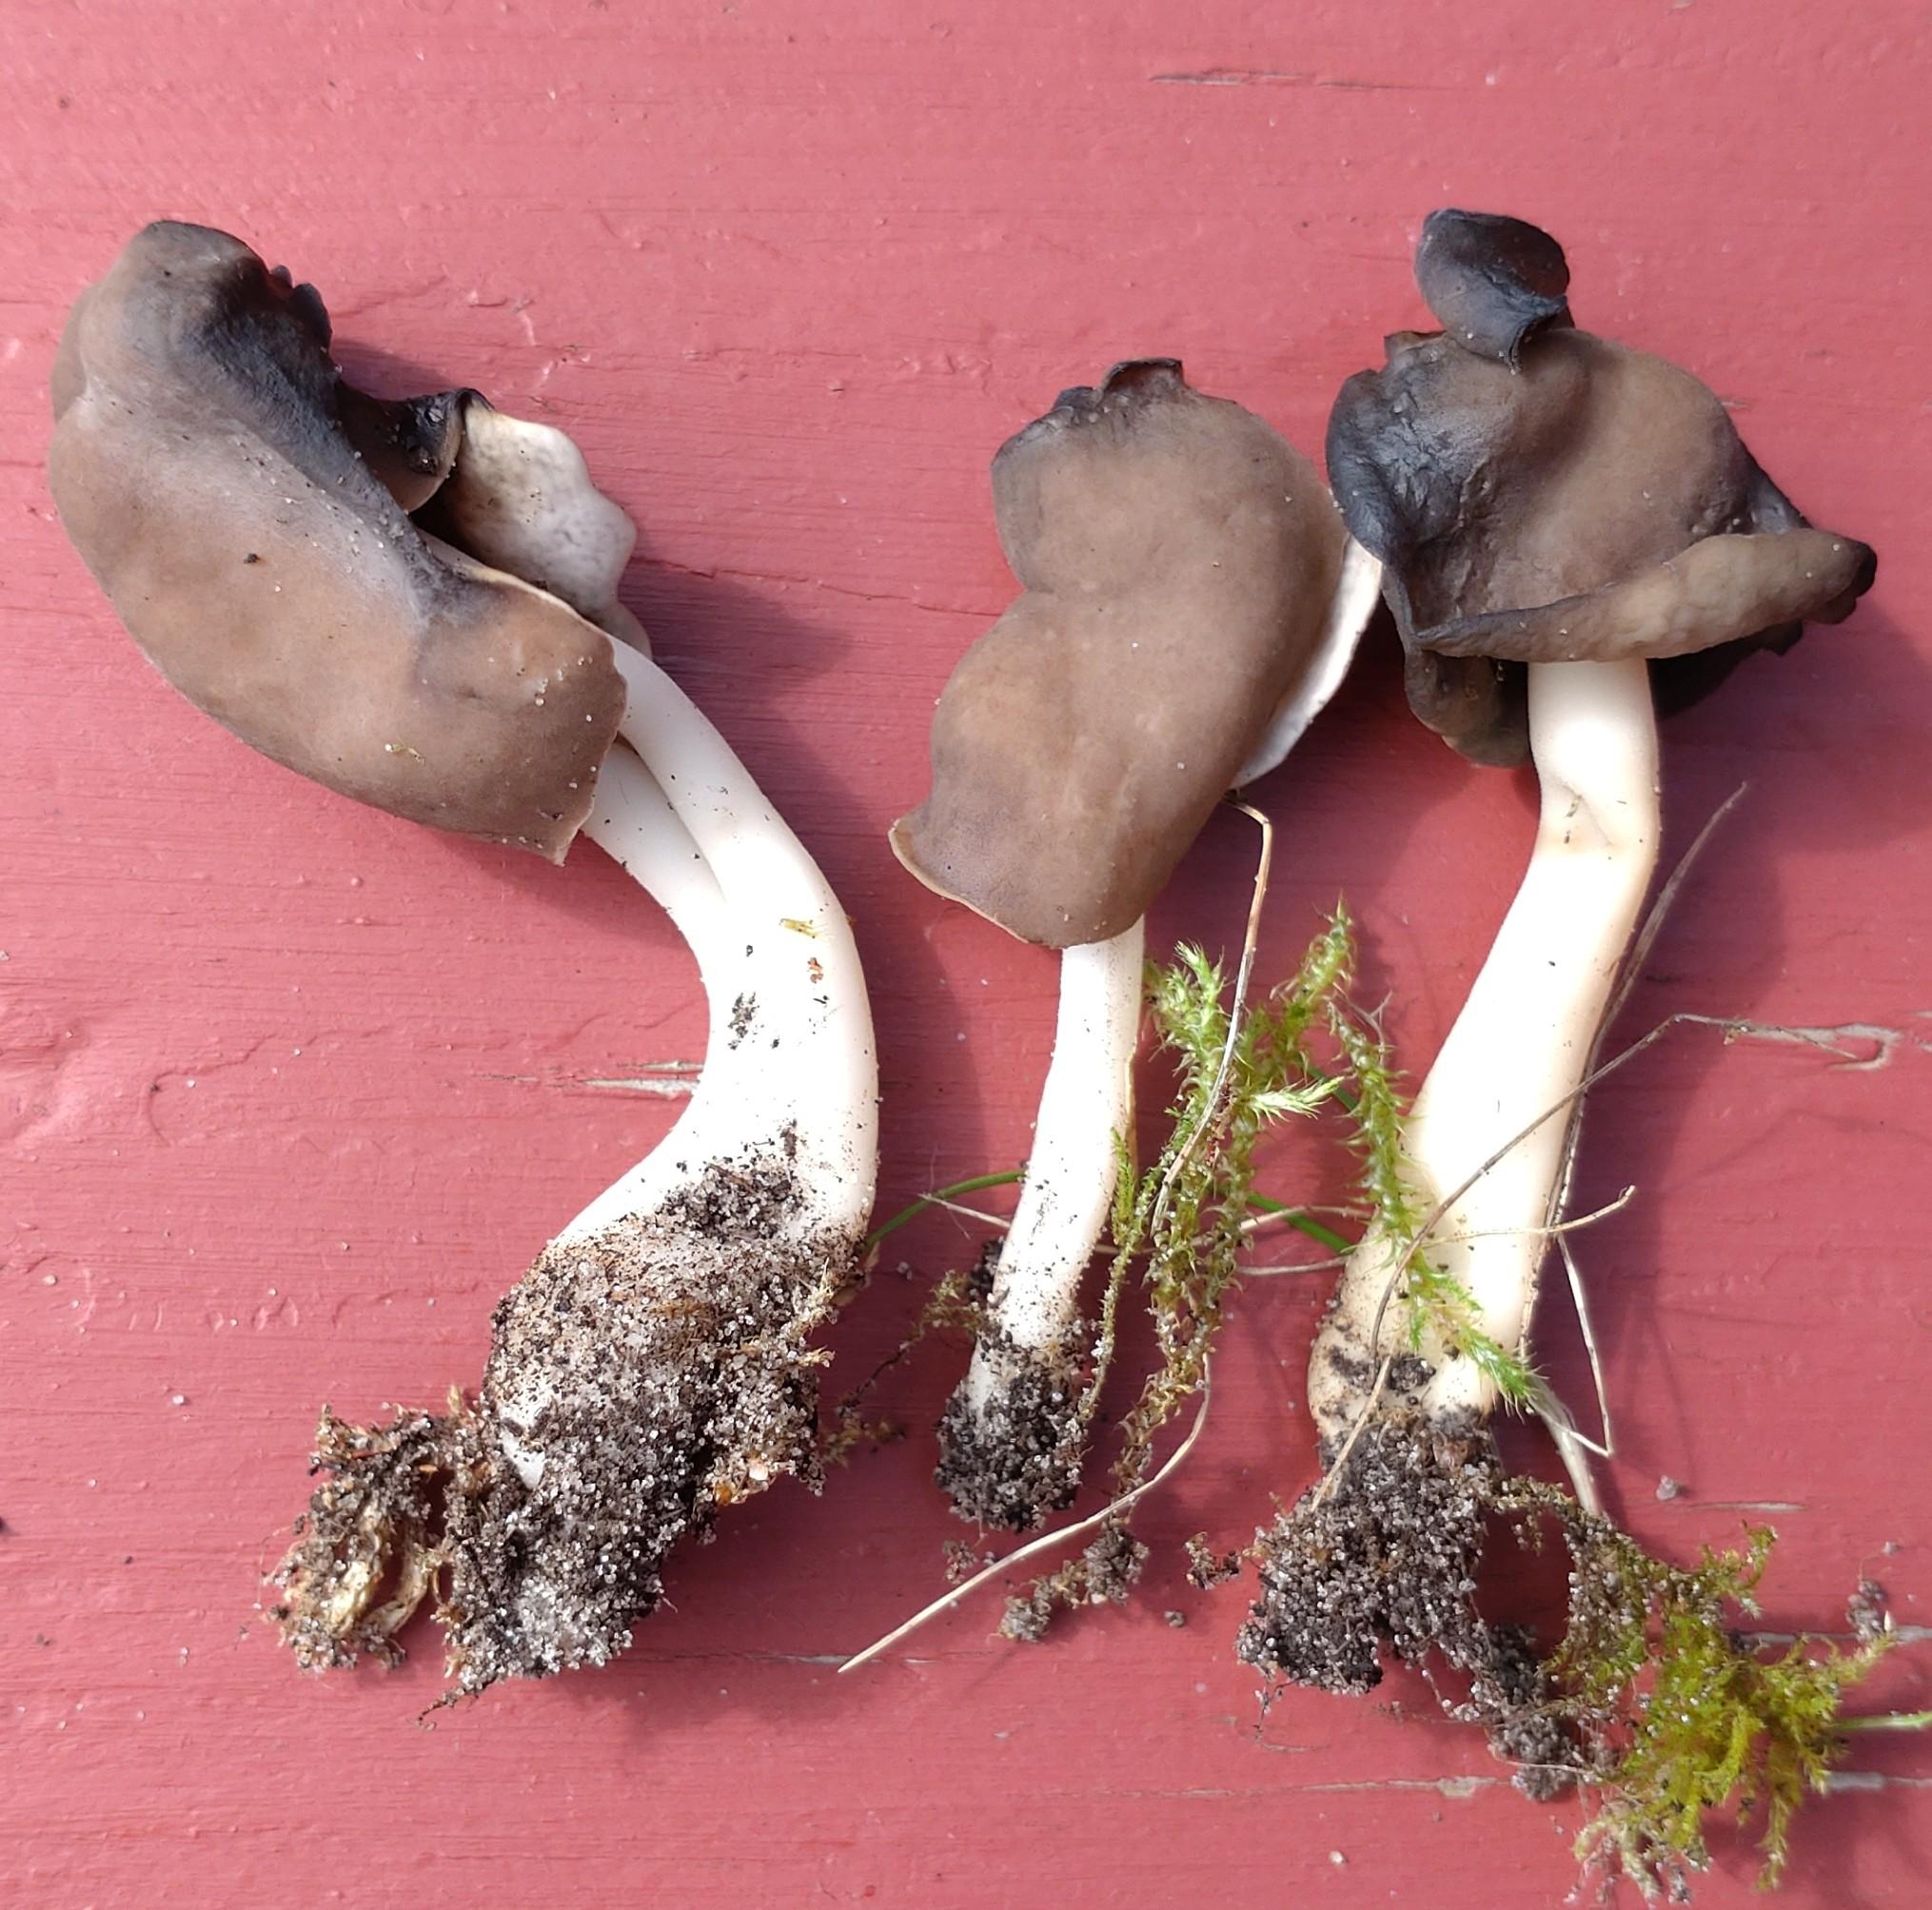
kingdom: Fungi
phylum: Ascomycota
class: Pezizomycetes
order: Pezizales
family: Helvellaceae
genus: Helvella
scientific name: Helvella elastica
